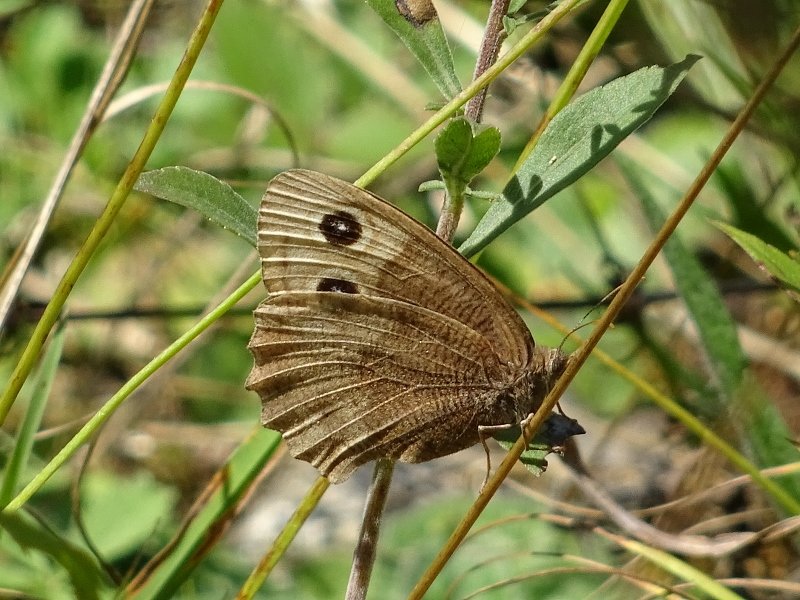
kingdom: Animalia
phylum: Arthropoda
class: Insecta
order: Lepidoptera
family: Nymphalidae
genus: Cercyonis
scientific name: Cercyonis pegala
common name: Common Wood-Nymph
